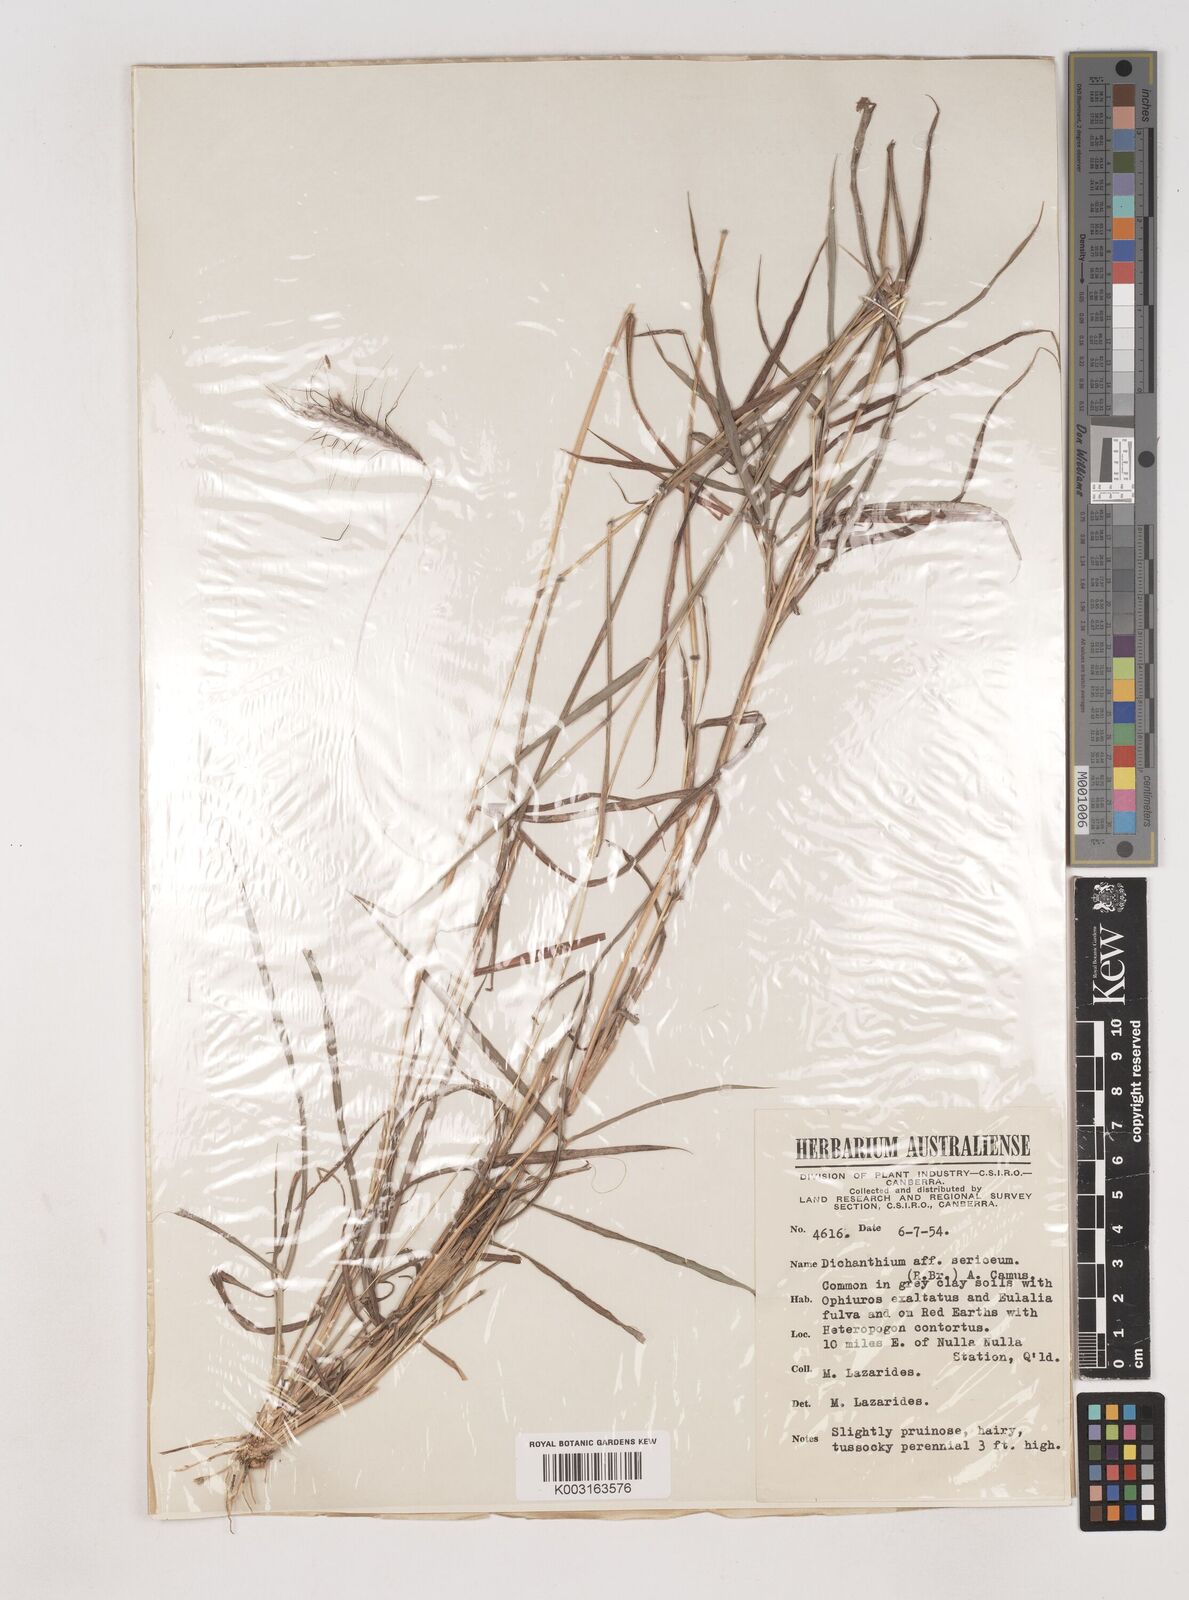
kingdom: Plantae
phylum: Tracheophyta
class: Liliopsida
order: Poales
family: Poaceae
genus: Dichanthium
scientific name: Dichanthium
